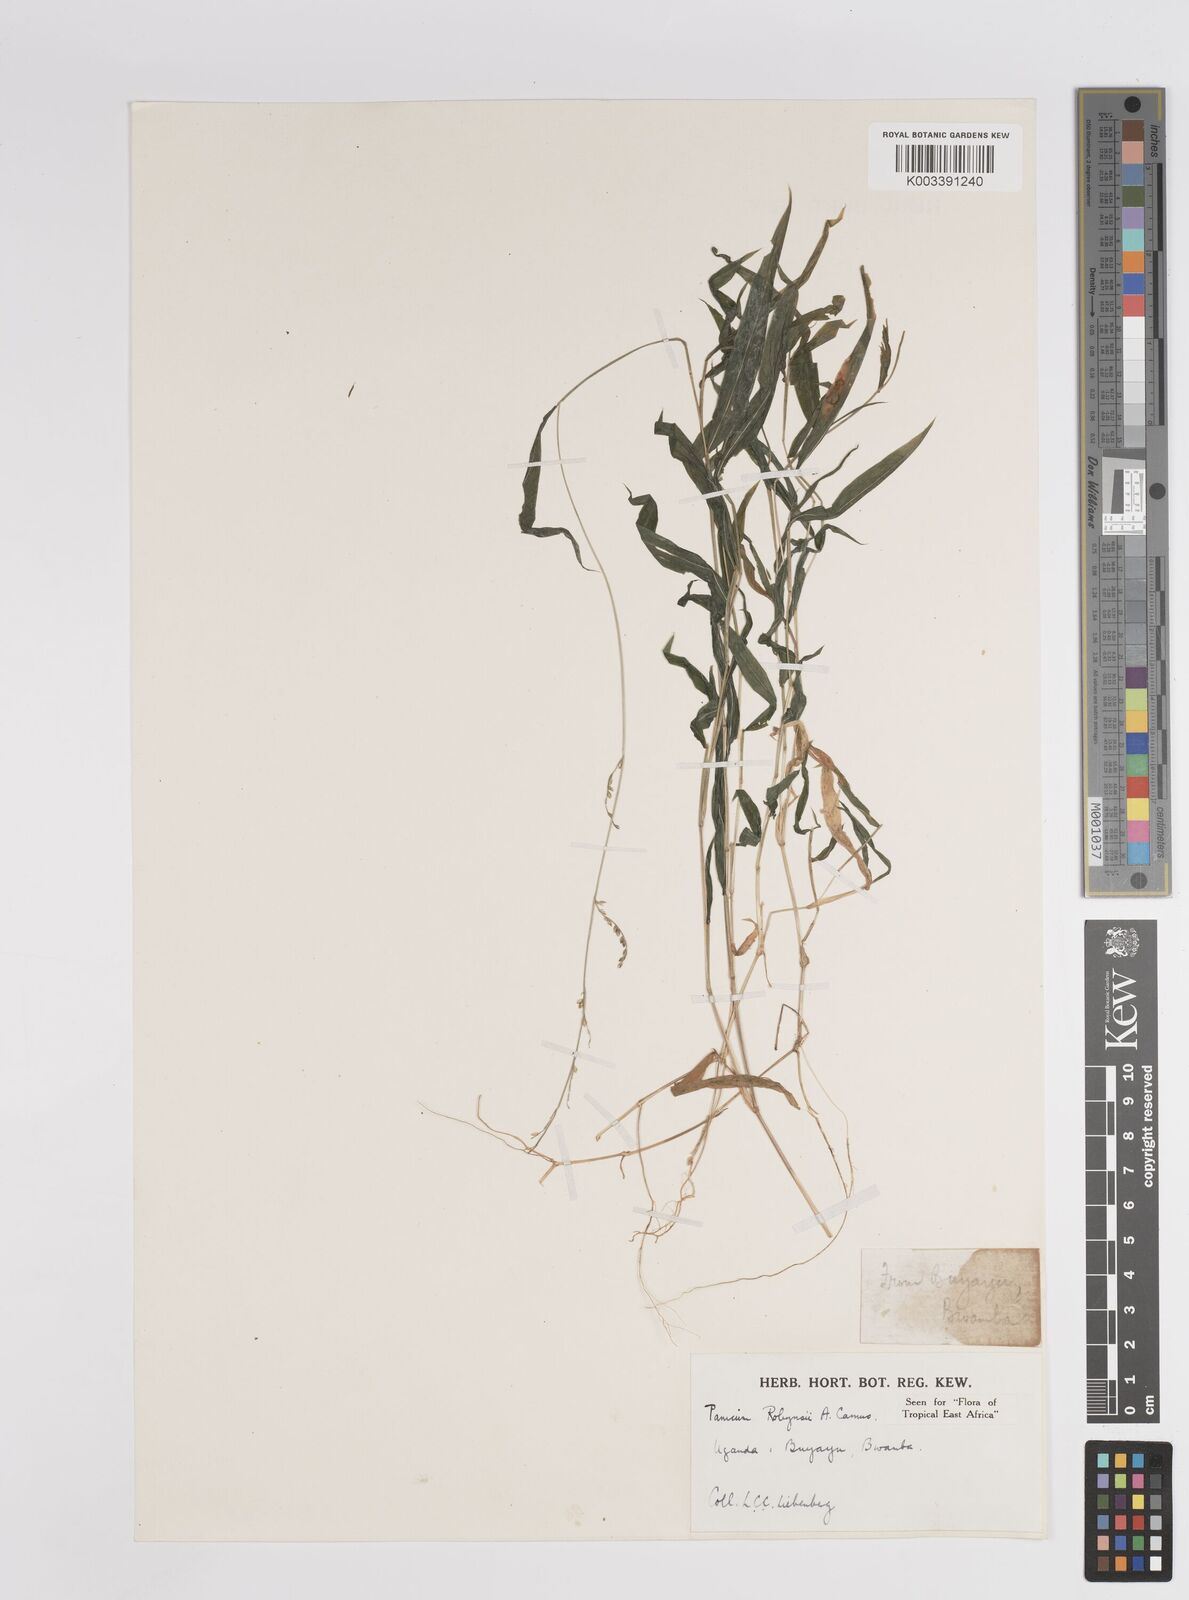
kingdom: Plantae
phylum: Tracheophyta
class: Liliopsida
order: Poales
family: Poaceae
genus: Panicum
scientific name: Panicum robynsii
